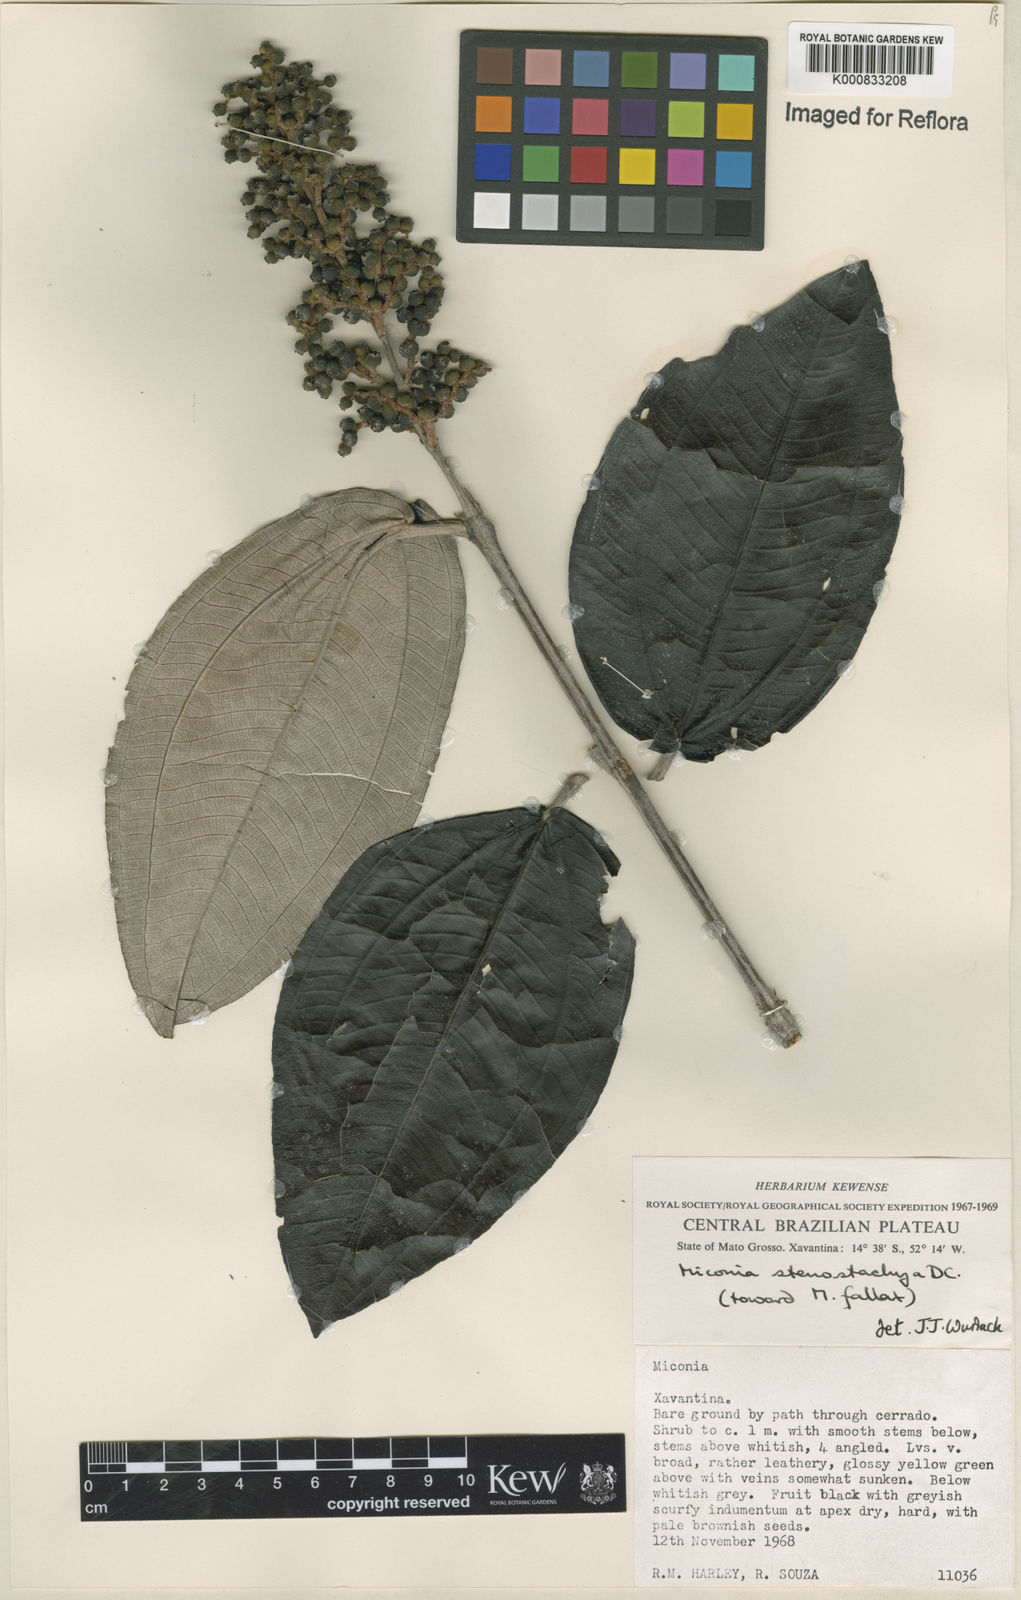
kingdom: Plantae
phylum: Tracheophyta
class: Magnoliopsida
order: Myrtales
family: Melastomataceae
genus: Miconia
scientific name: Miconia stenostachya
